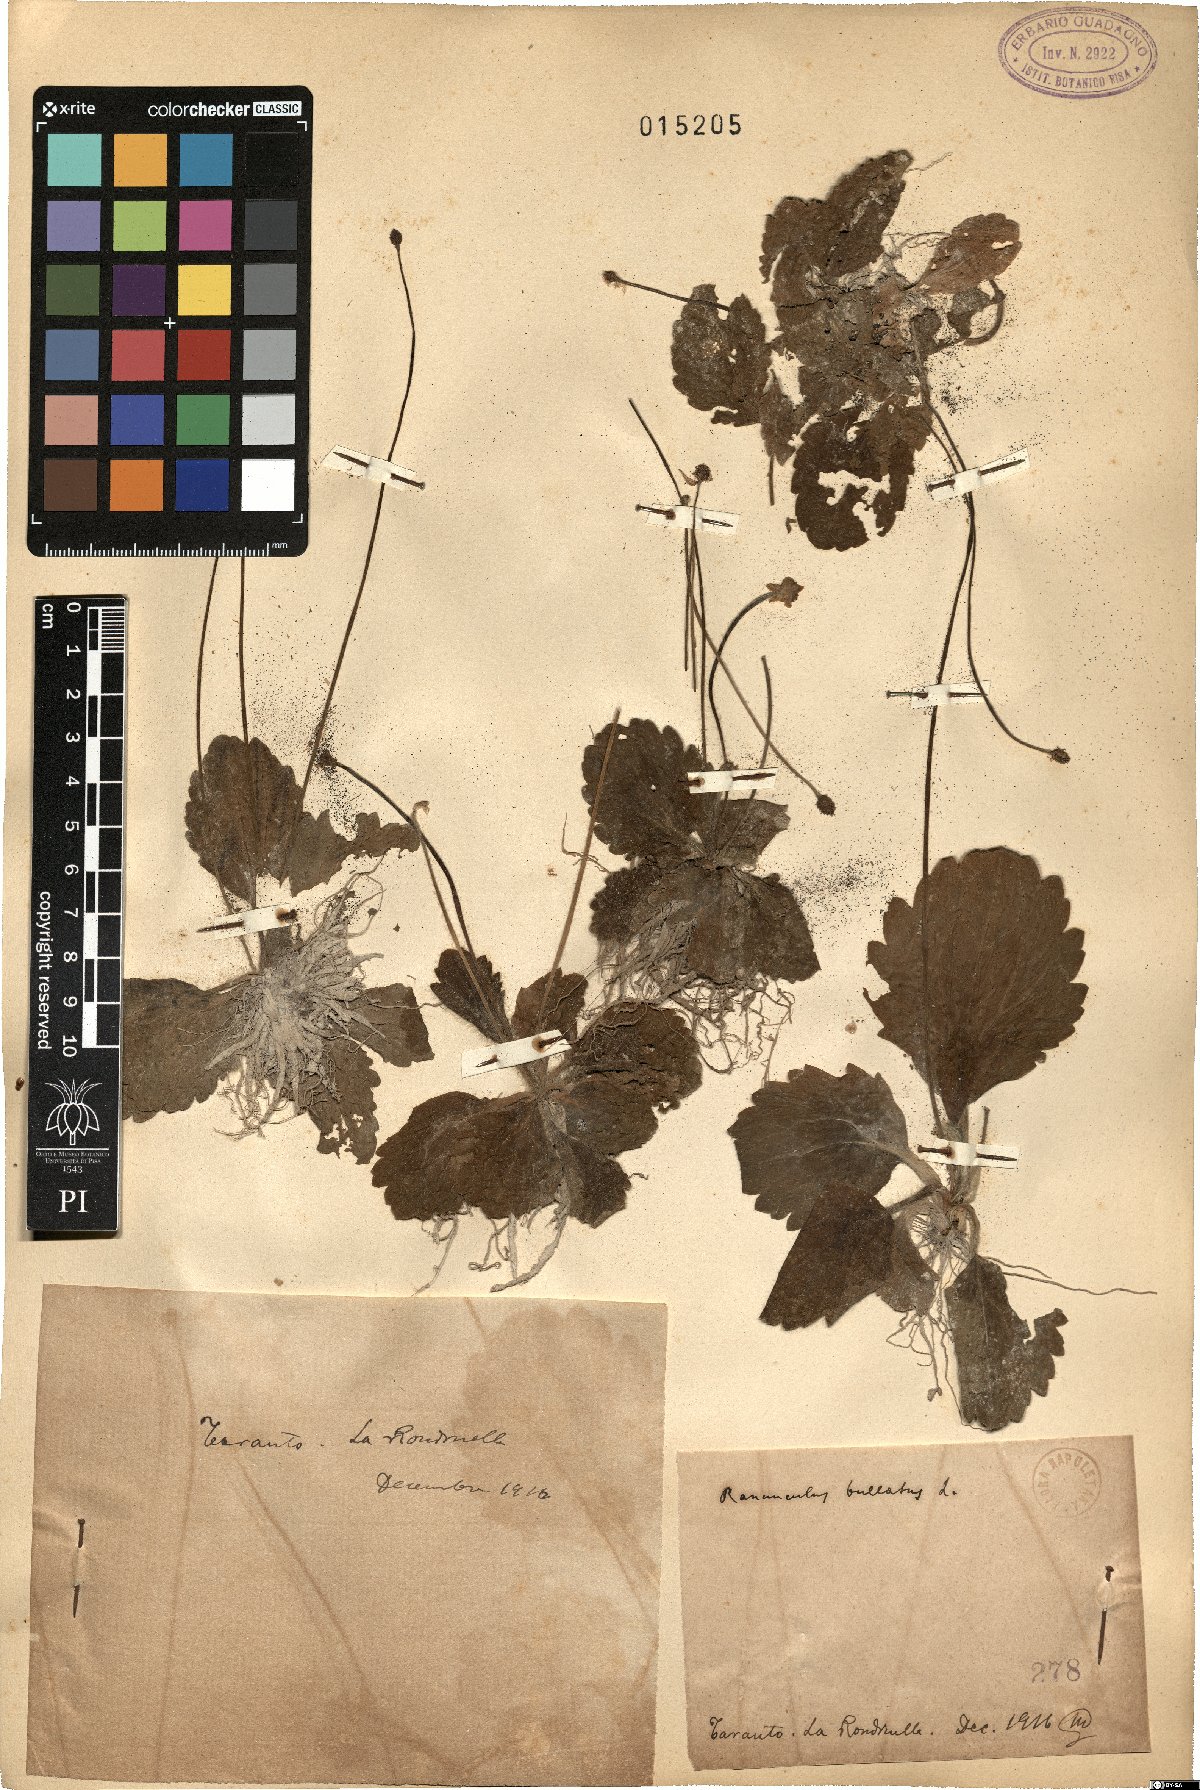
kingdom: Plantae
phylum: Tracheophyta
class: Magnoliopsida
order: Ranunculales
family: Ranunculaceae
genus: Ranunculus
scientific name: Ranunculus bullatus
